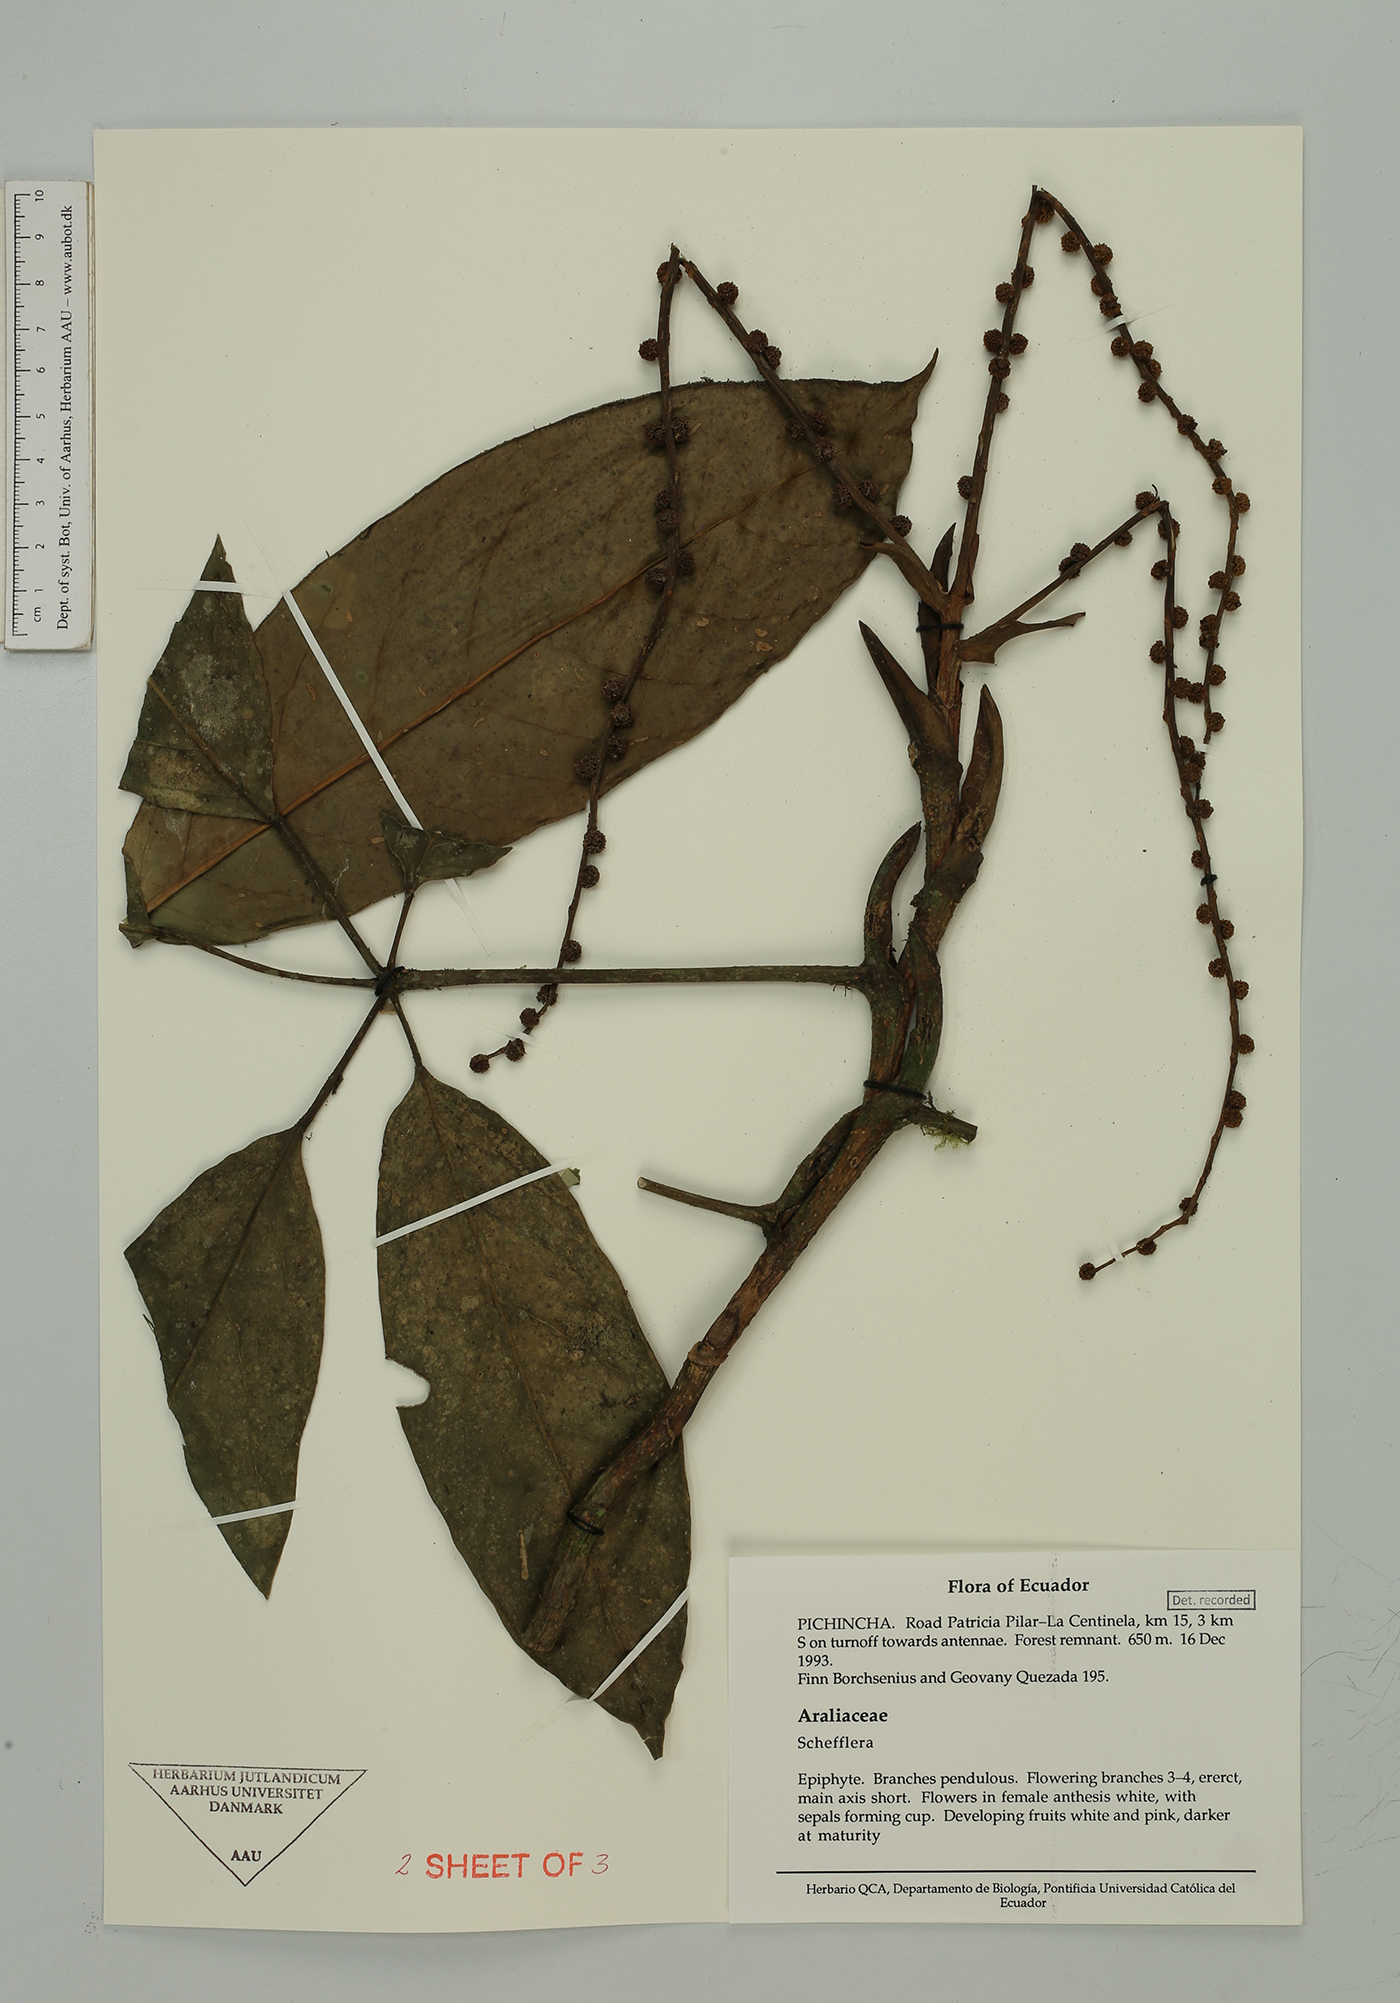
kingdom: Plantae
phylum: Tracheophyta
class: Magnoliopsida
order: Apiales
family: Araliaceae
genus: Sciodaphyllum
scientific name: Sciodaphyllum
